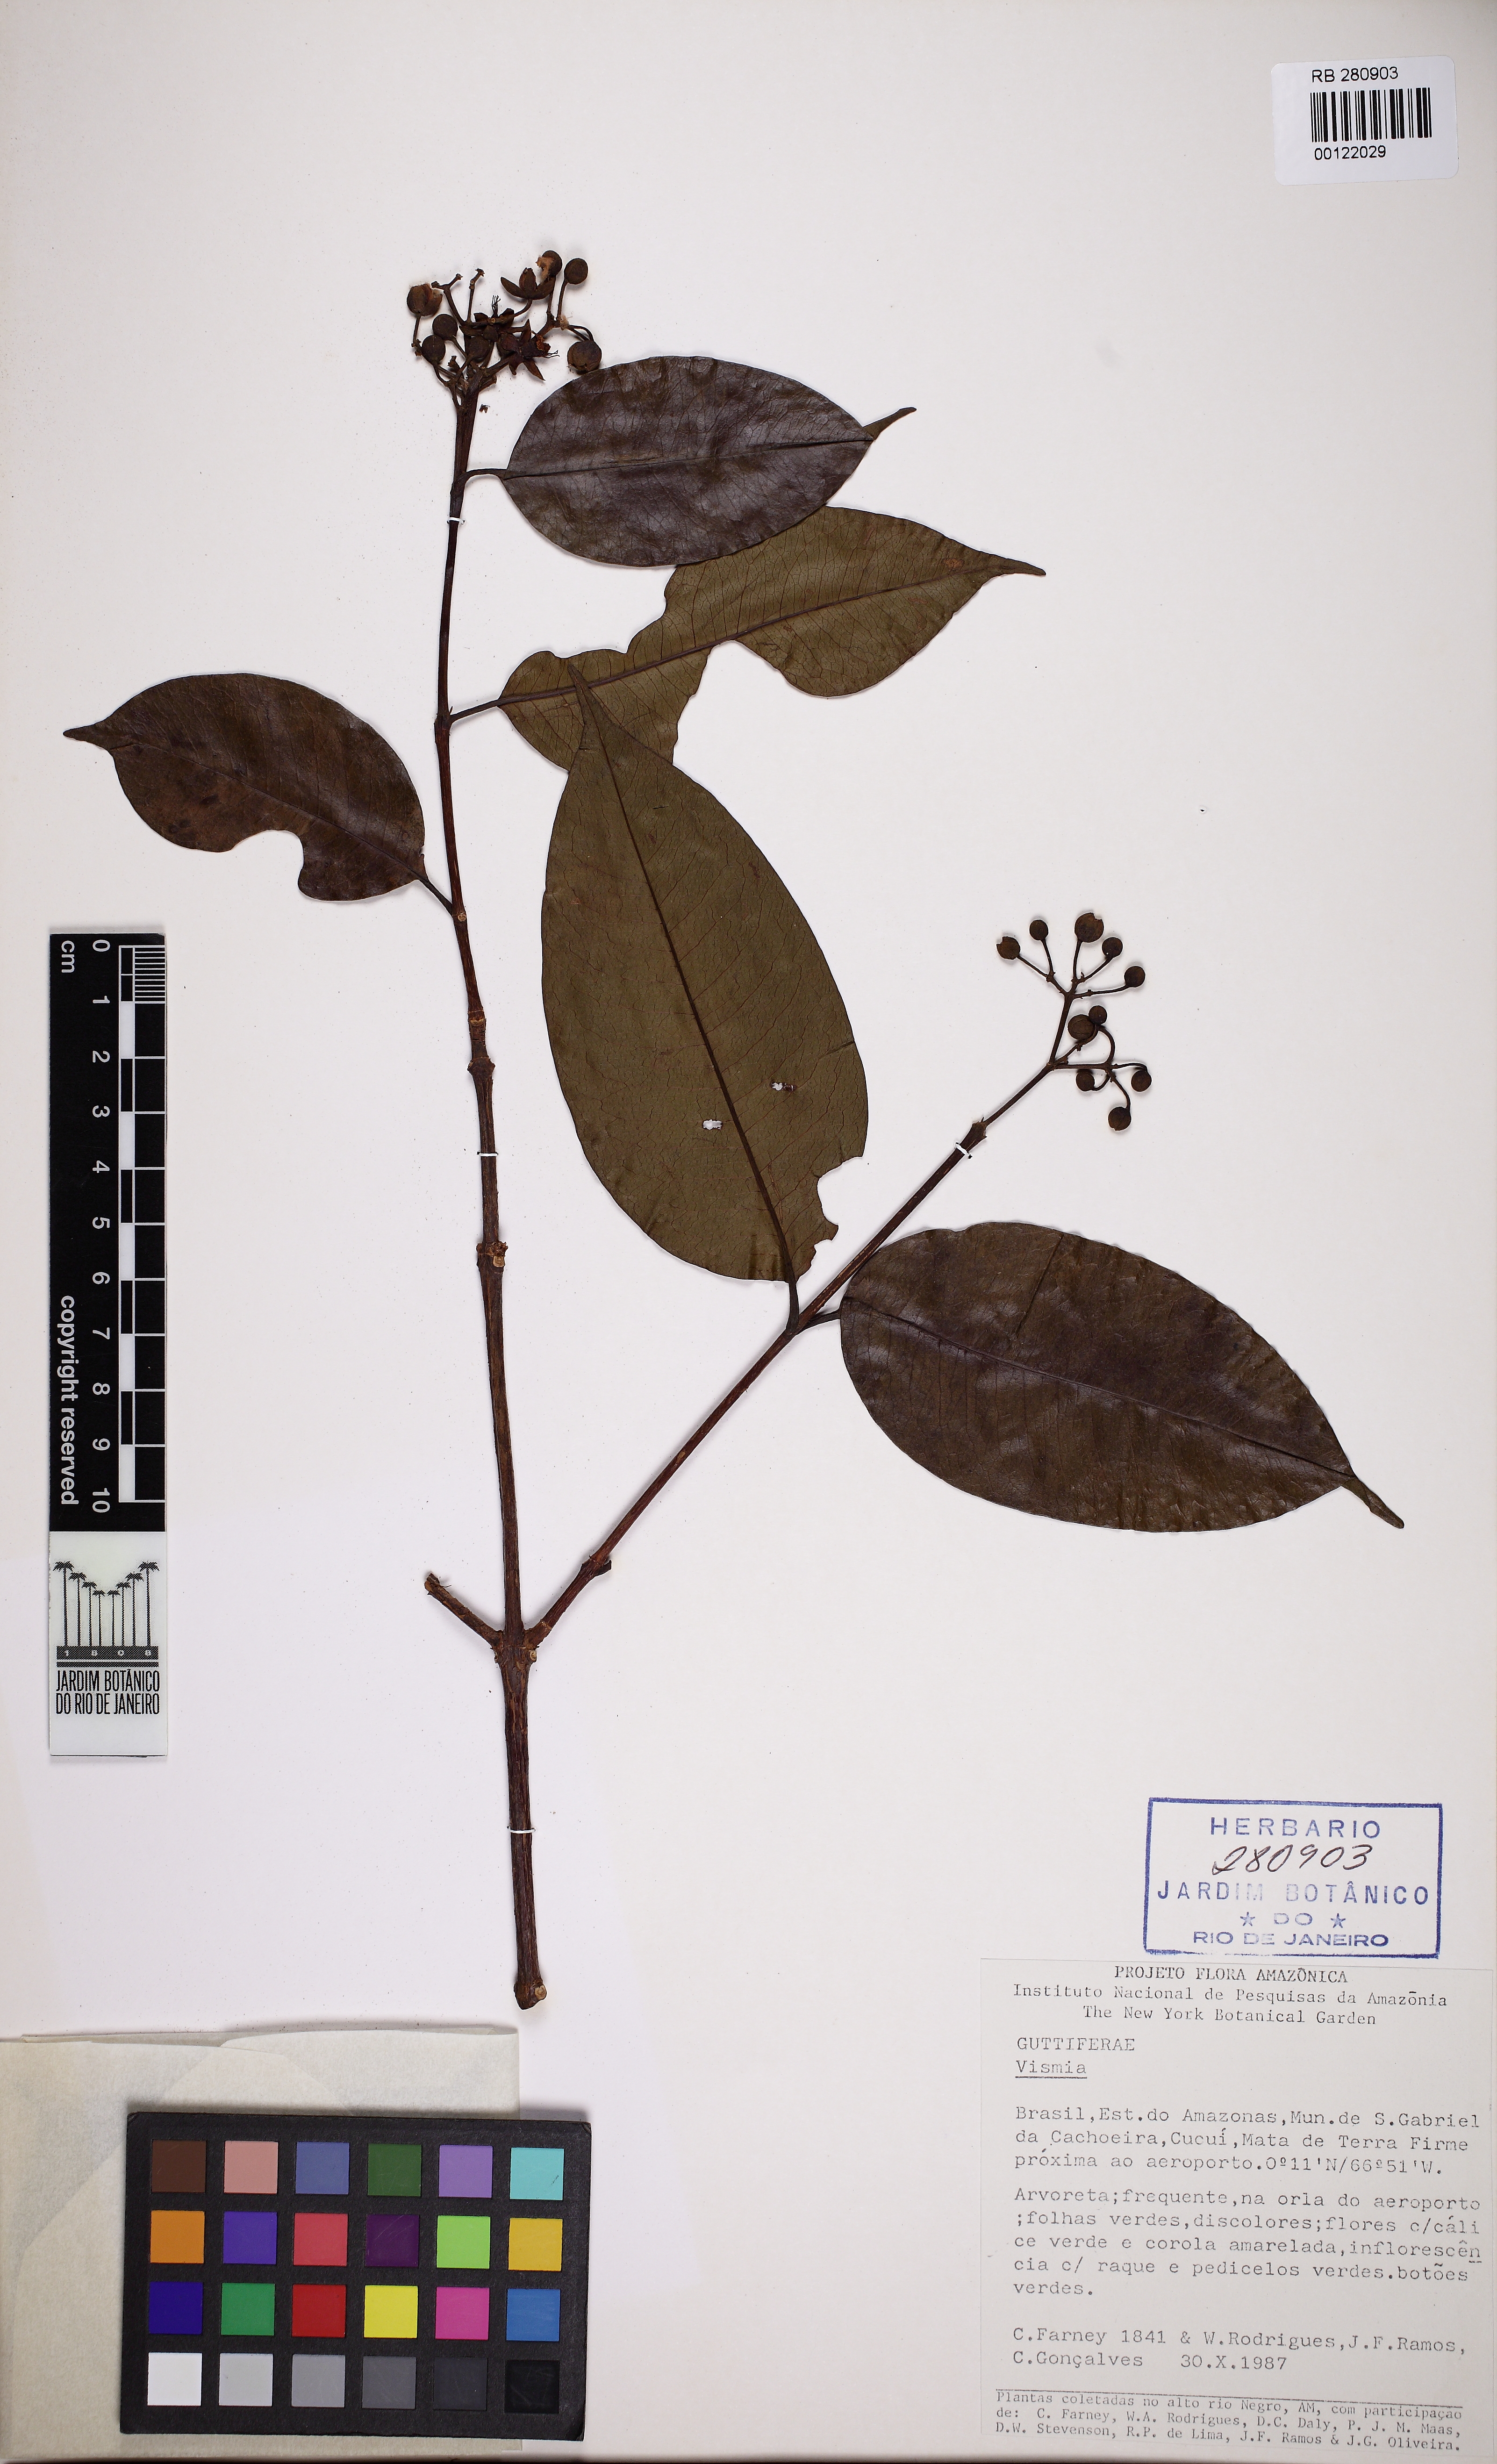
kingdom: Plantae
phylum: Tracheophyta
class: Magnoliopsida
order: Malpighiales
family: Hypericaceae
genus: Vismia
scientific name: Vismia cayennensis
